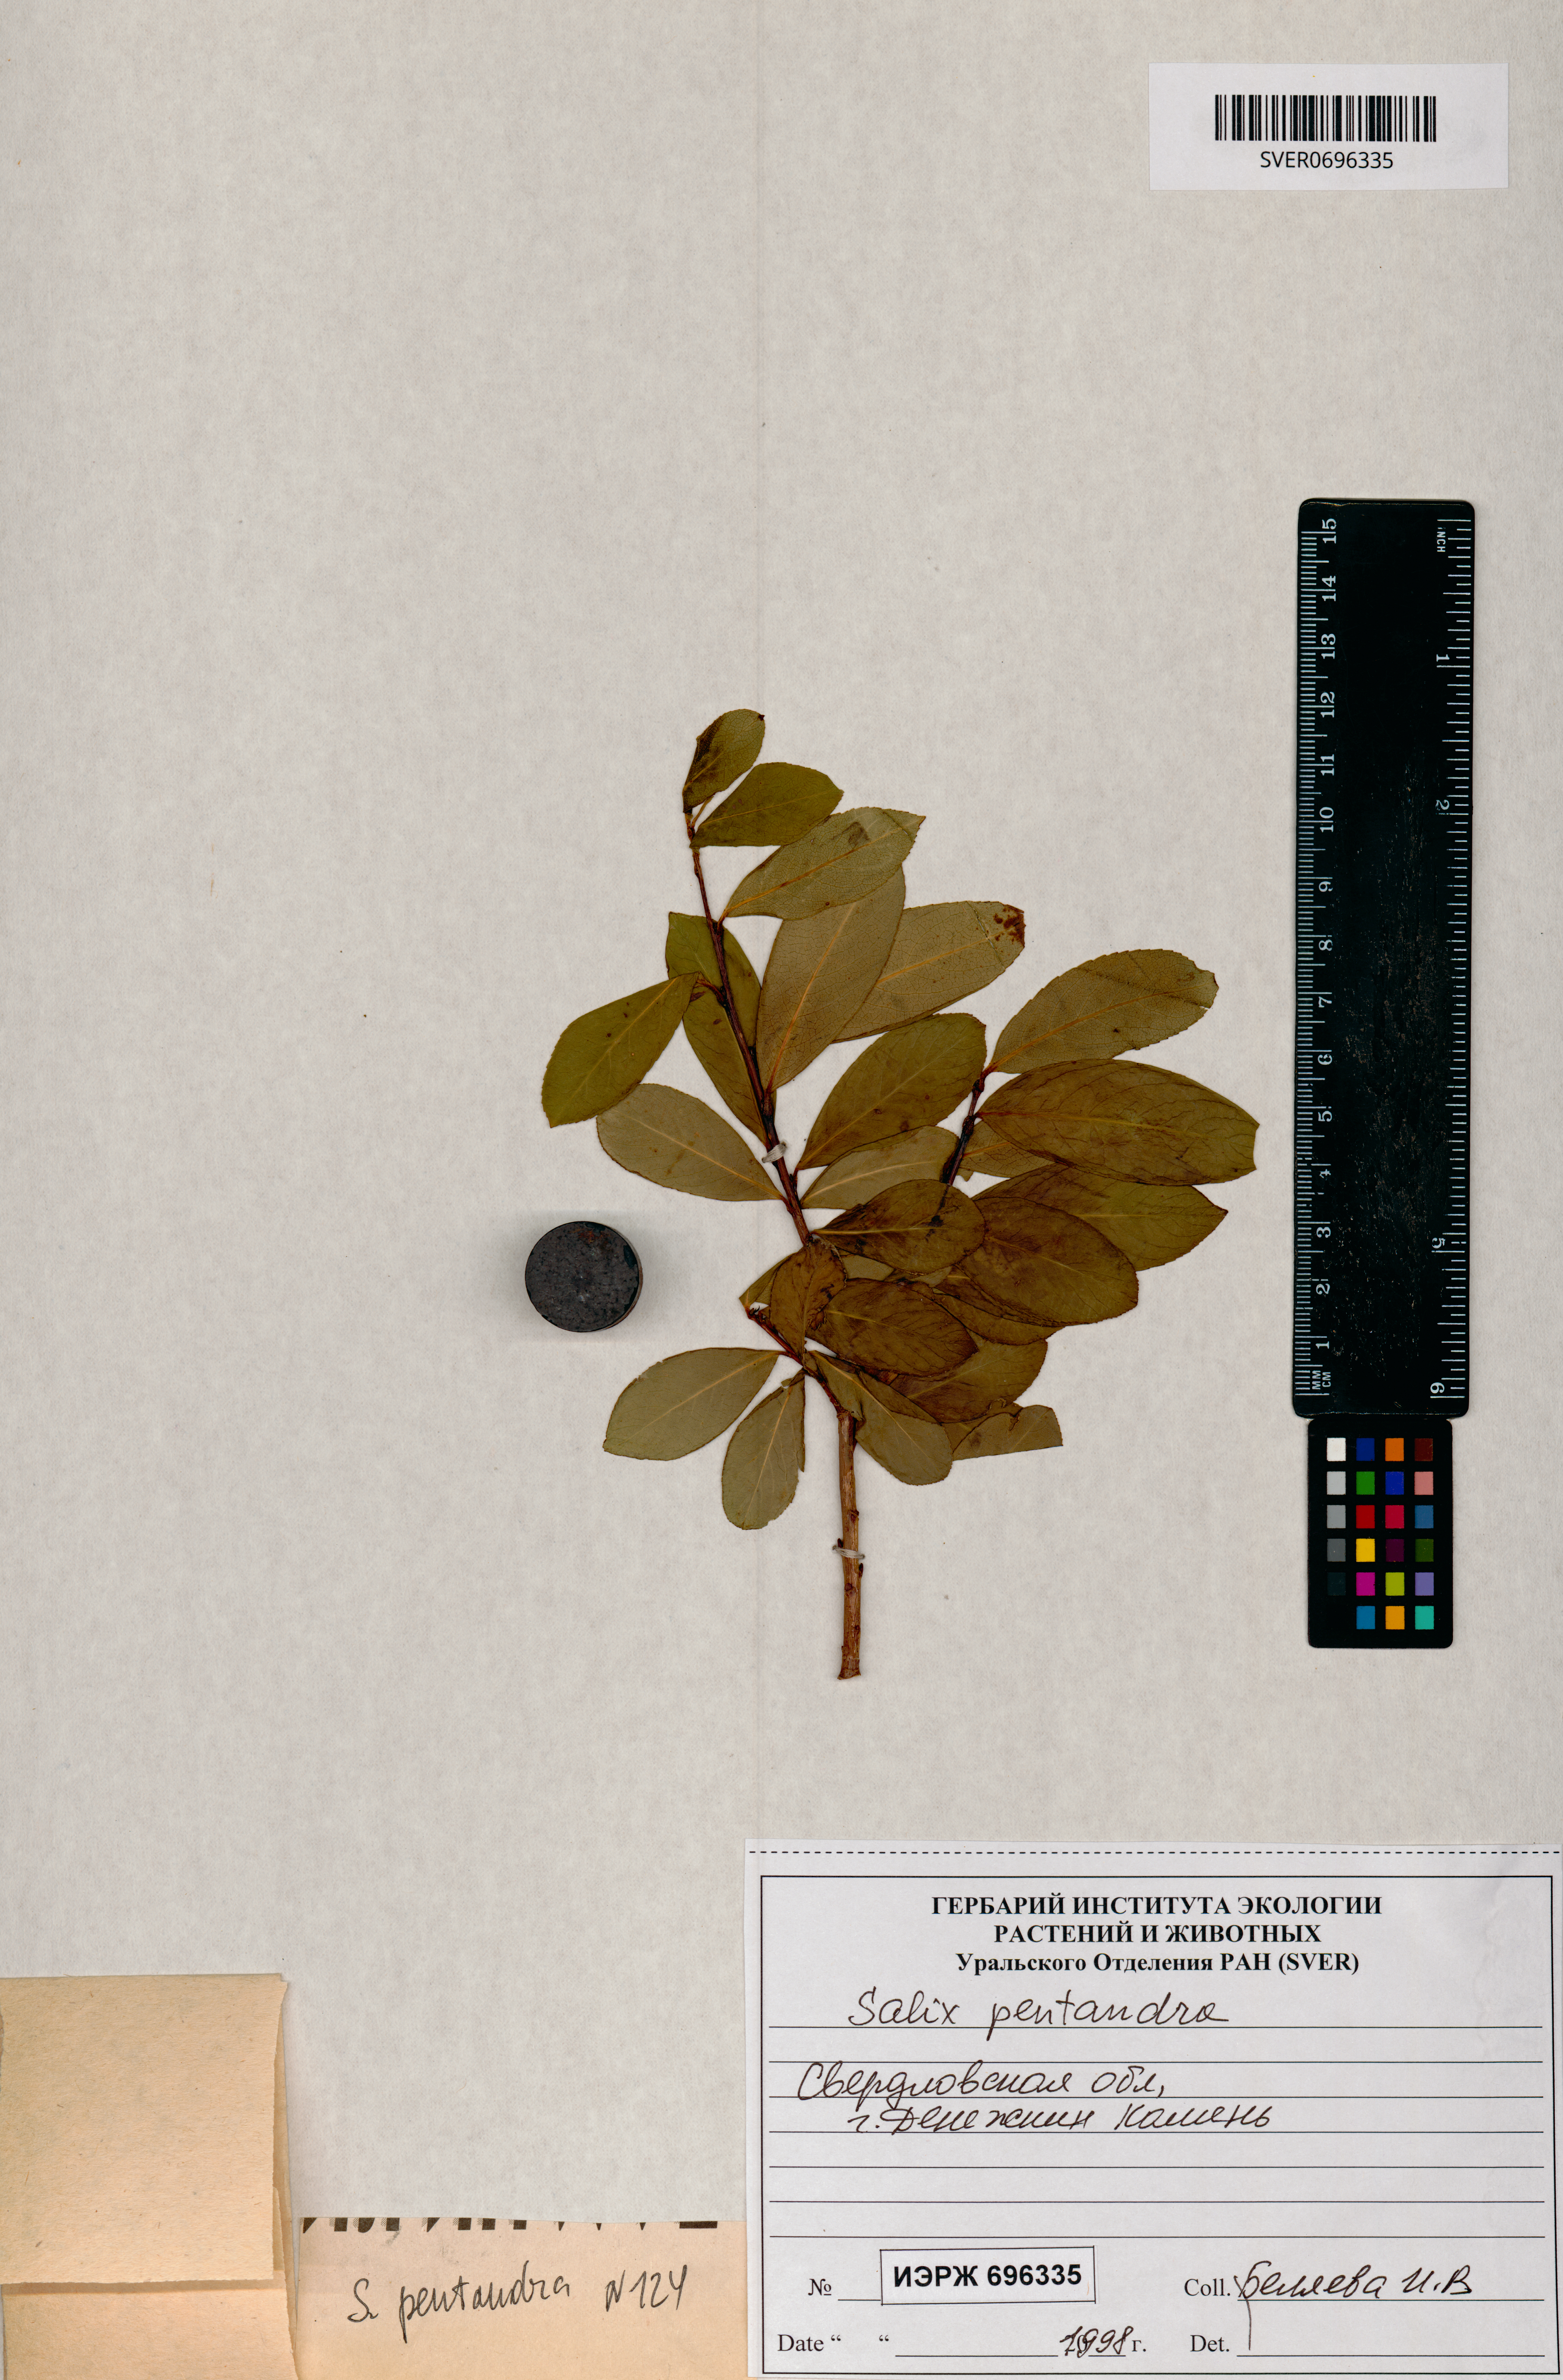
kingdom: Plantae
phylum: Tracheophyta
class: Magnoliopsida
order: Malpighiales
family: Salicaceae
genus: Salix
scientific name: Salix pentandra
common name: Bay willow
